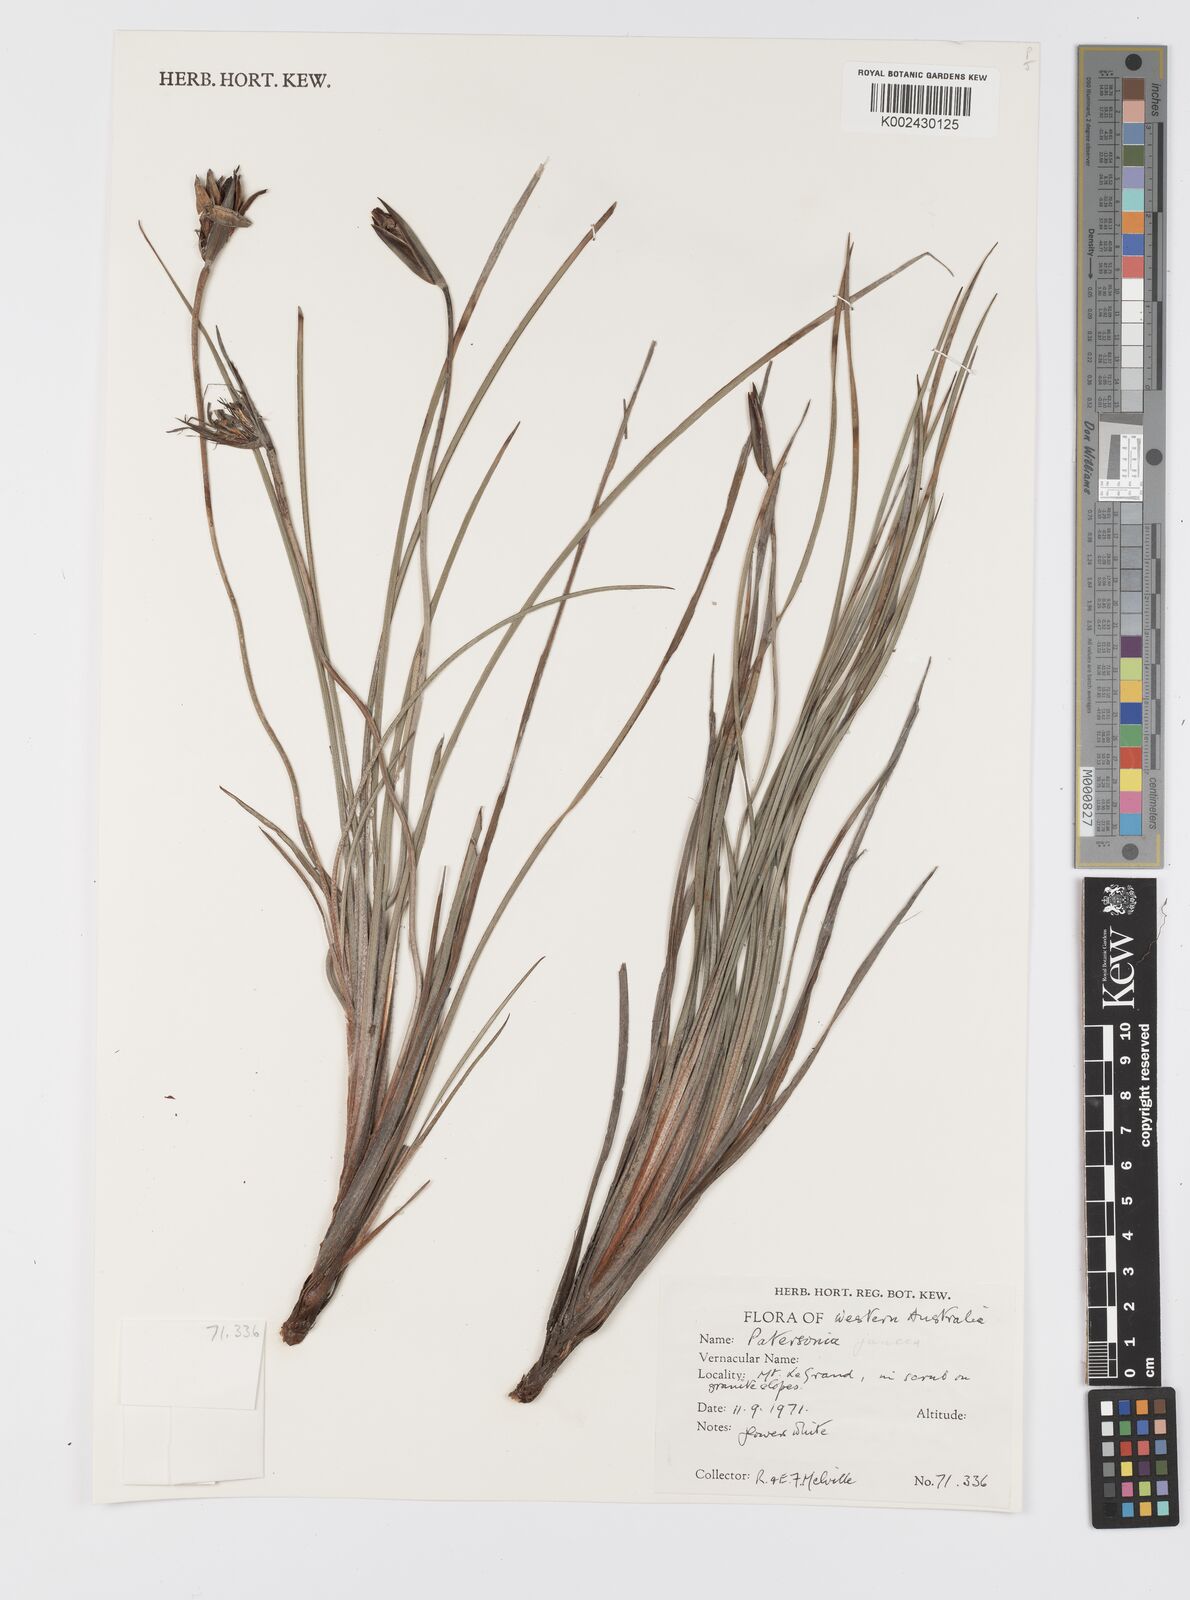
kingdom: Plantae
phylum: Tracheophyta
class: Liliopsida
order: Asparagales
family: Iridaceae
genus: Patersonia
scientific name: Patersonia juncea
